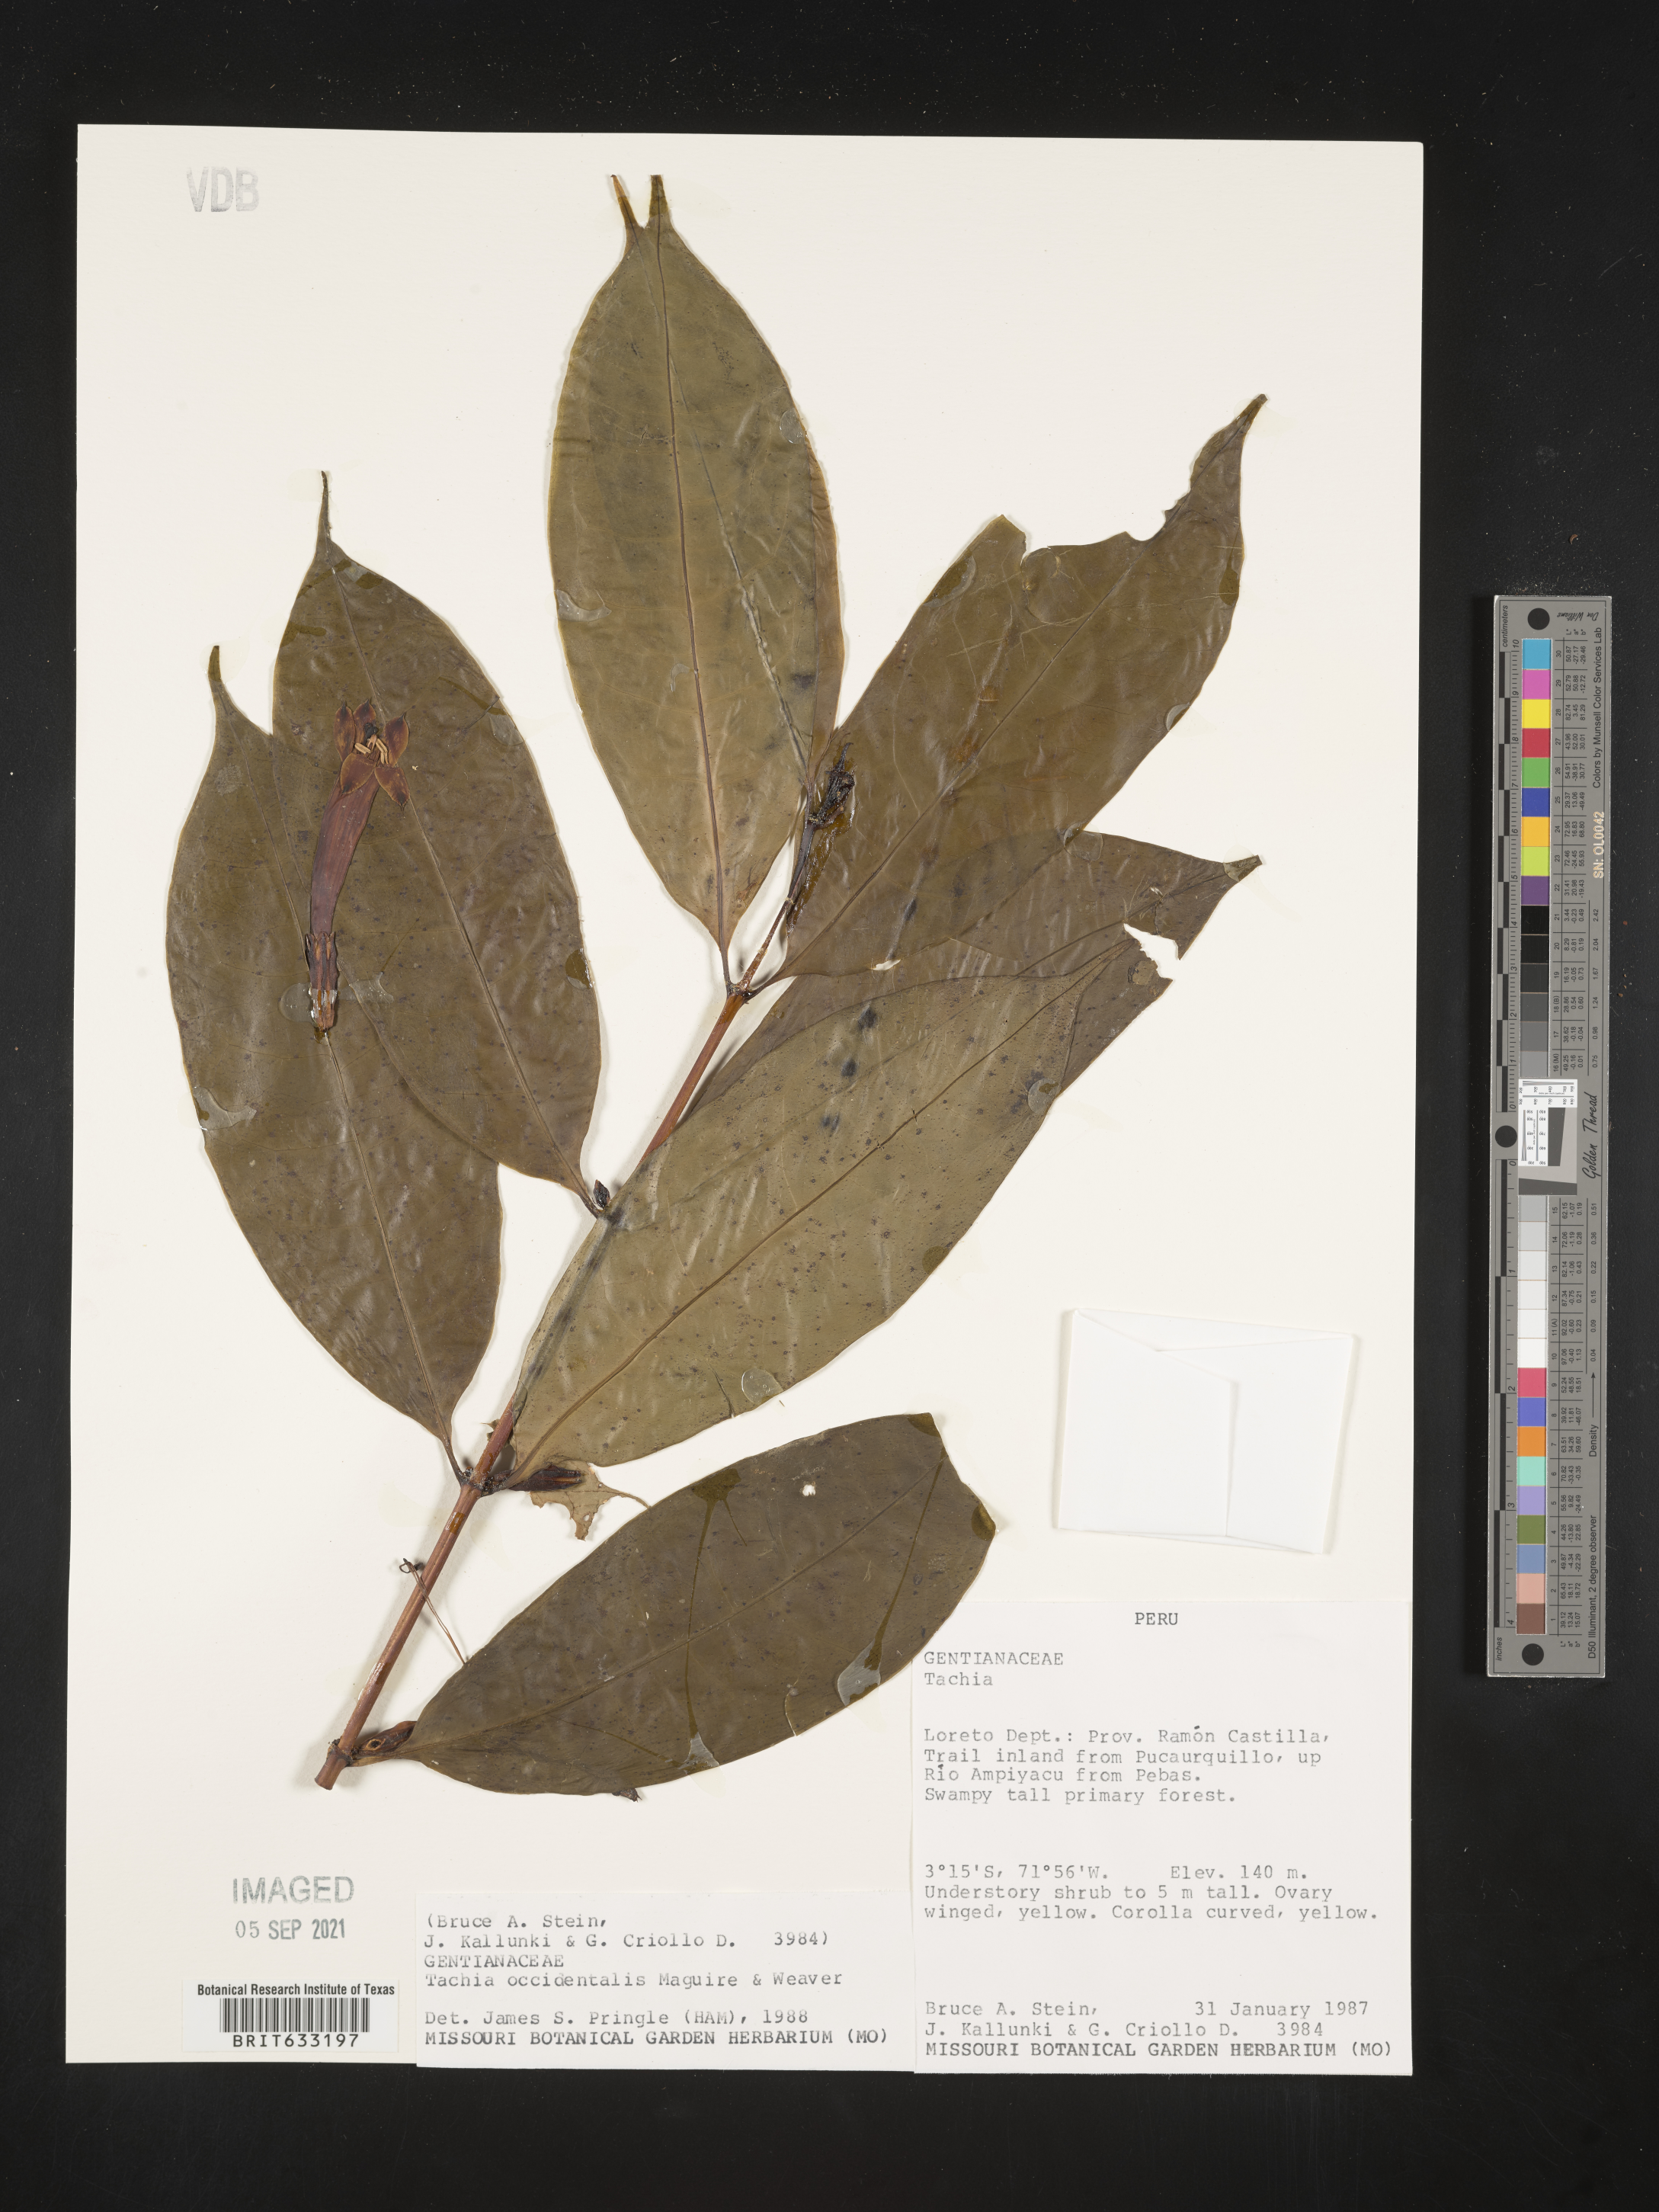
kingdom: Plantae
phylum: Tracheophyta
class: Magnoliopsida
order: Gentianales
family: Gentianaceae
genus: Tachia
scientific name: Tachia
